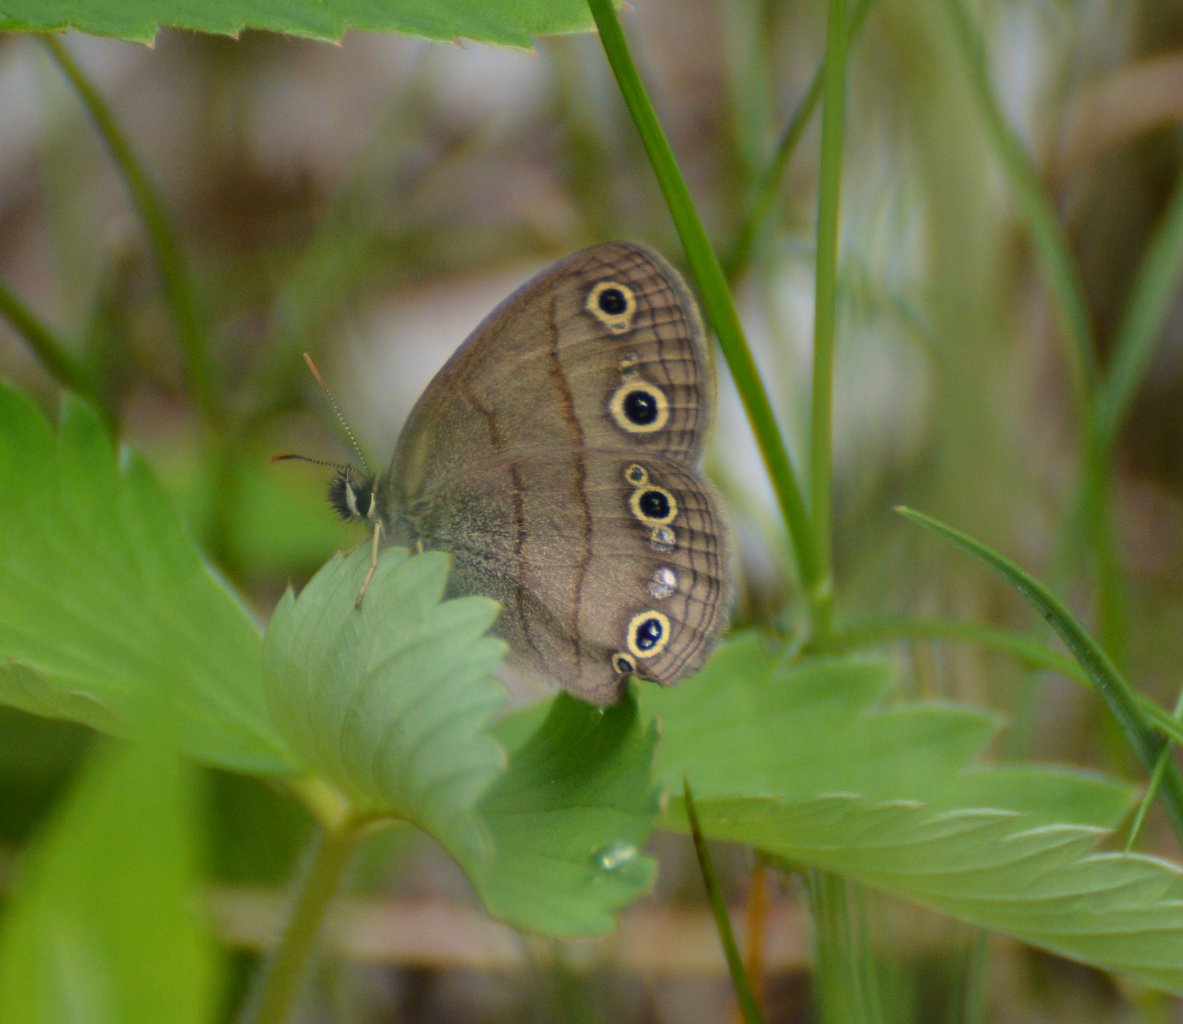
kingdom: Animalia
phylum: Arthropoda
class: Insecta
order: Lepidoptera
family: Nymphalidae
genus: Euptychia
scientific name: Euptychia cymela
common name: Little Wood Satyr
